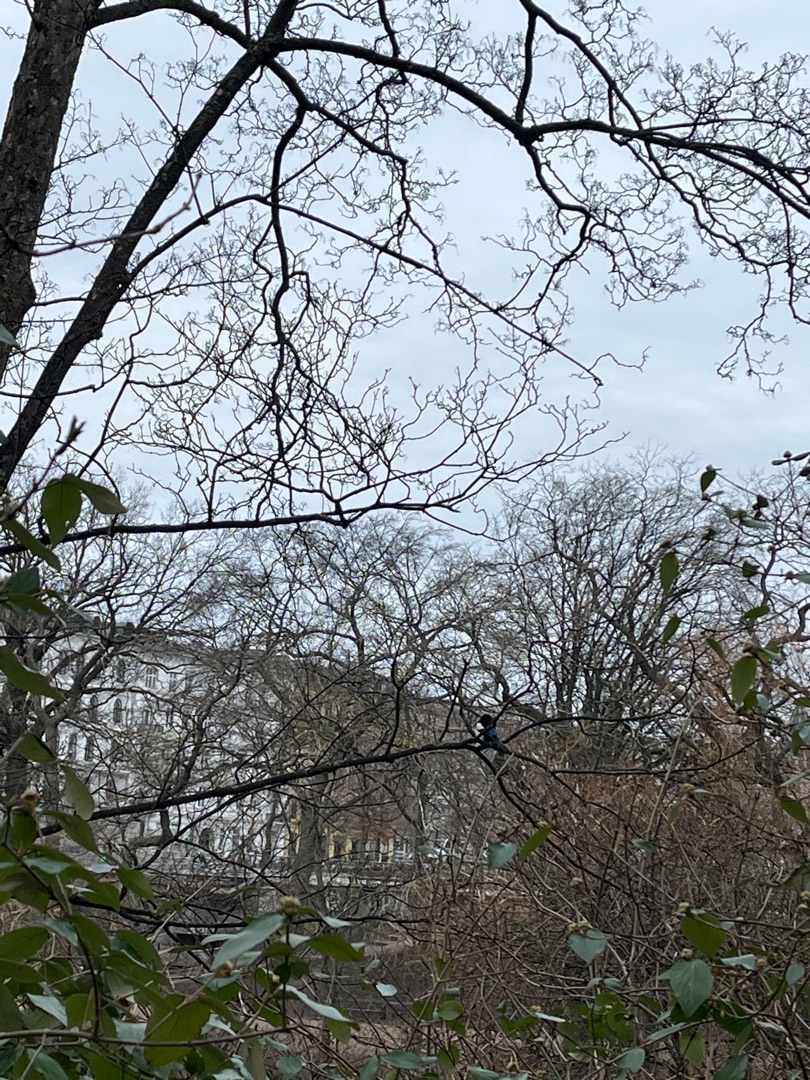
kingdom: Animalia
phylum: Chordata
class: Aves
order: Passeriformes
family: Corvidae
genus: Pica
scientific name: Pica pica
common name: Husskade
